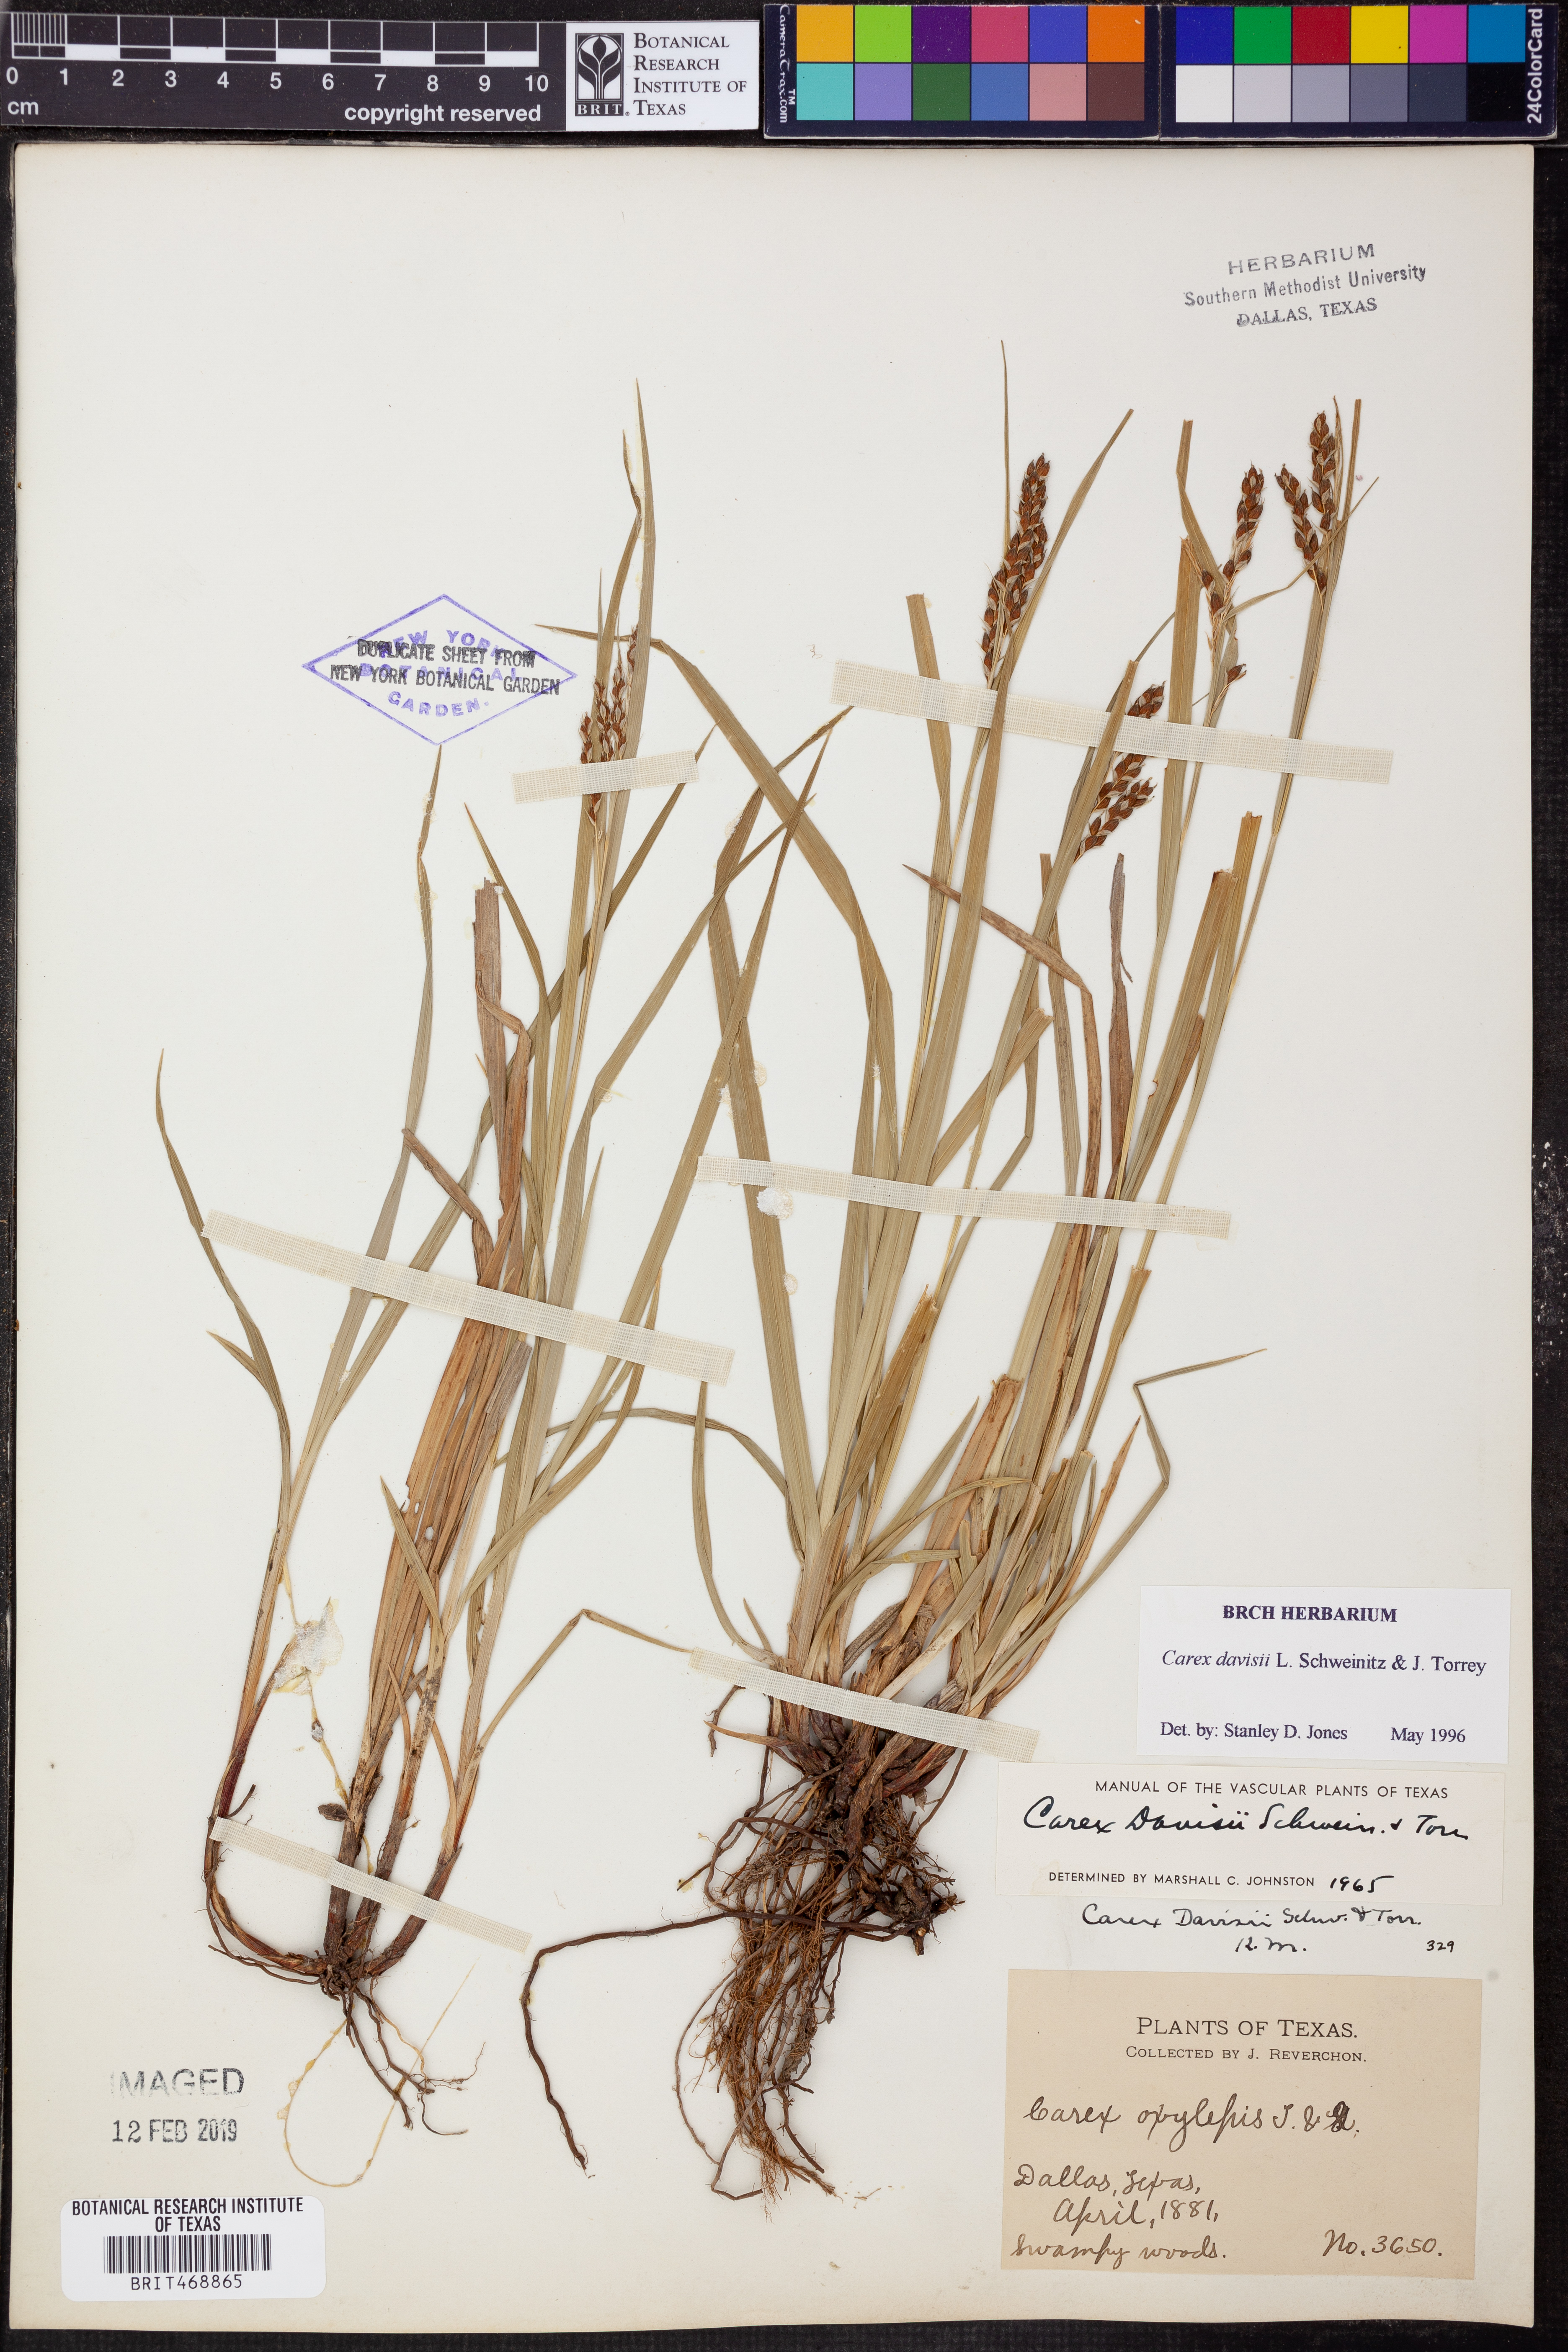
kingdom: Plantae
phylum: Tracheophyta
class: Liliopsida
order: Poales
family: Cyperaceae
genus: Carex
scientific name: Carex davisii
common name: Davis' sedge
